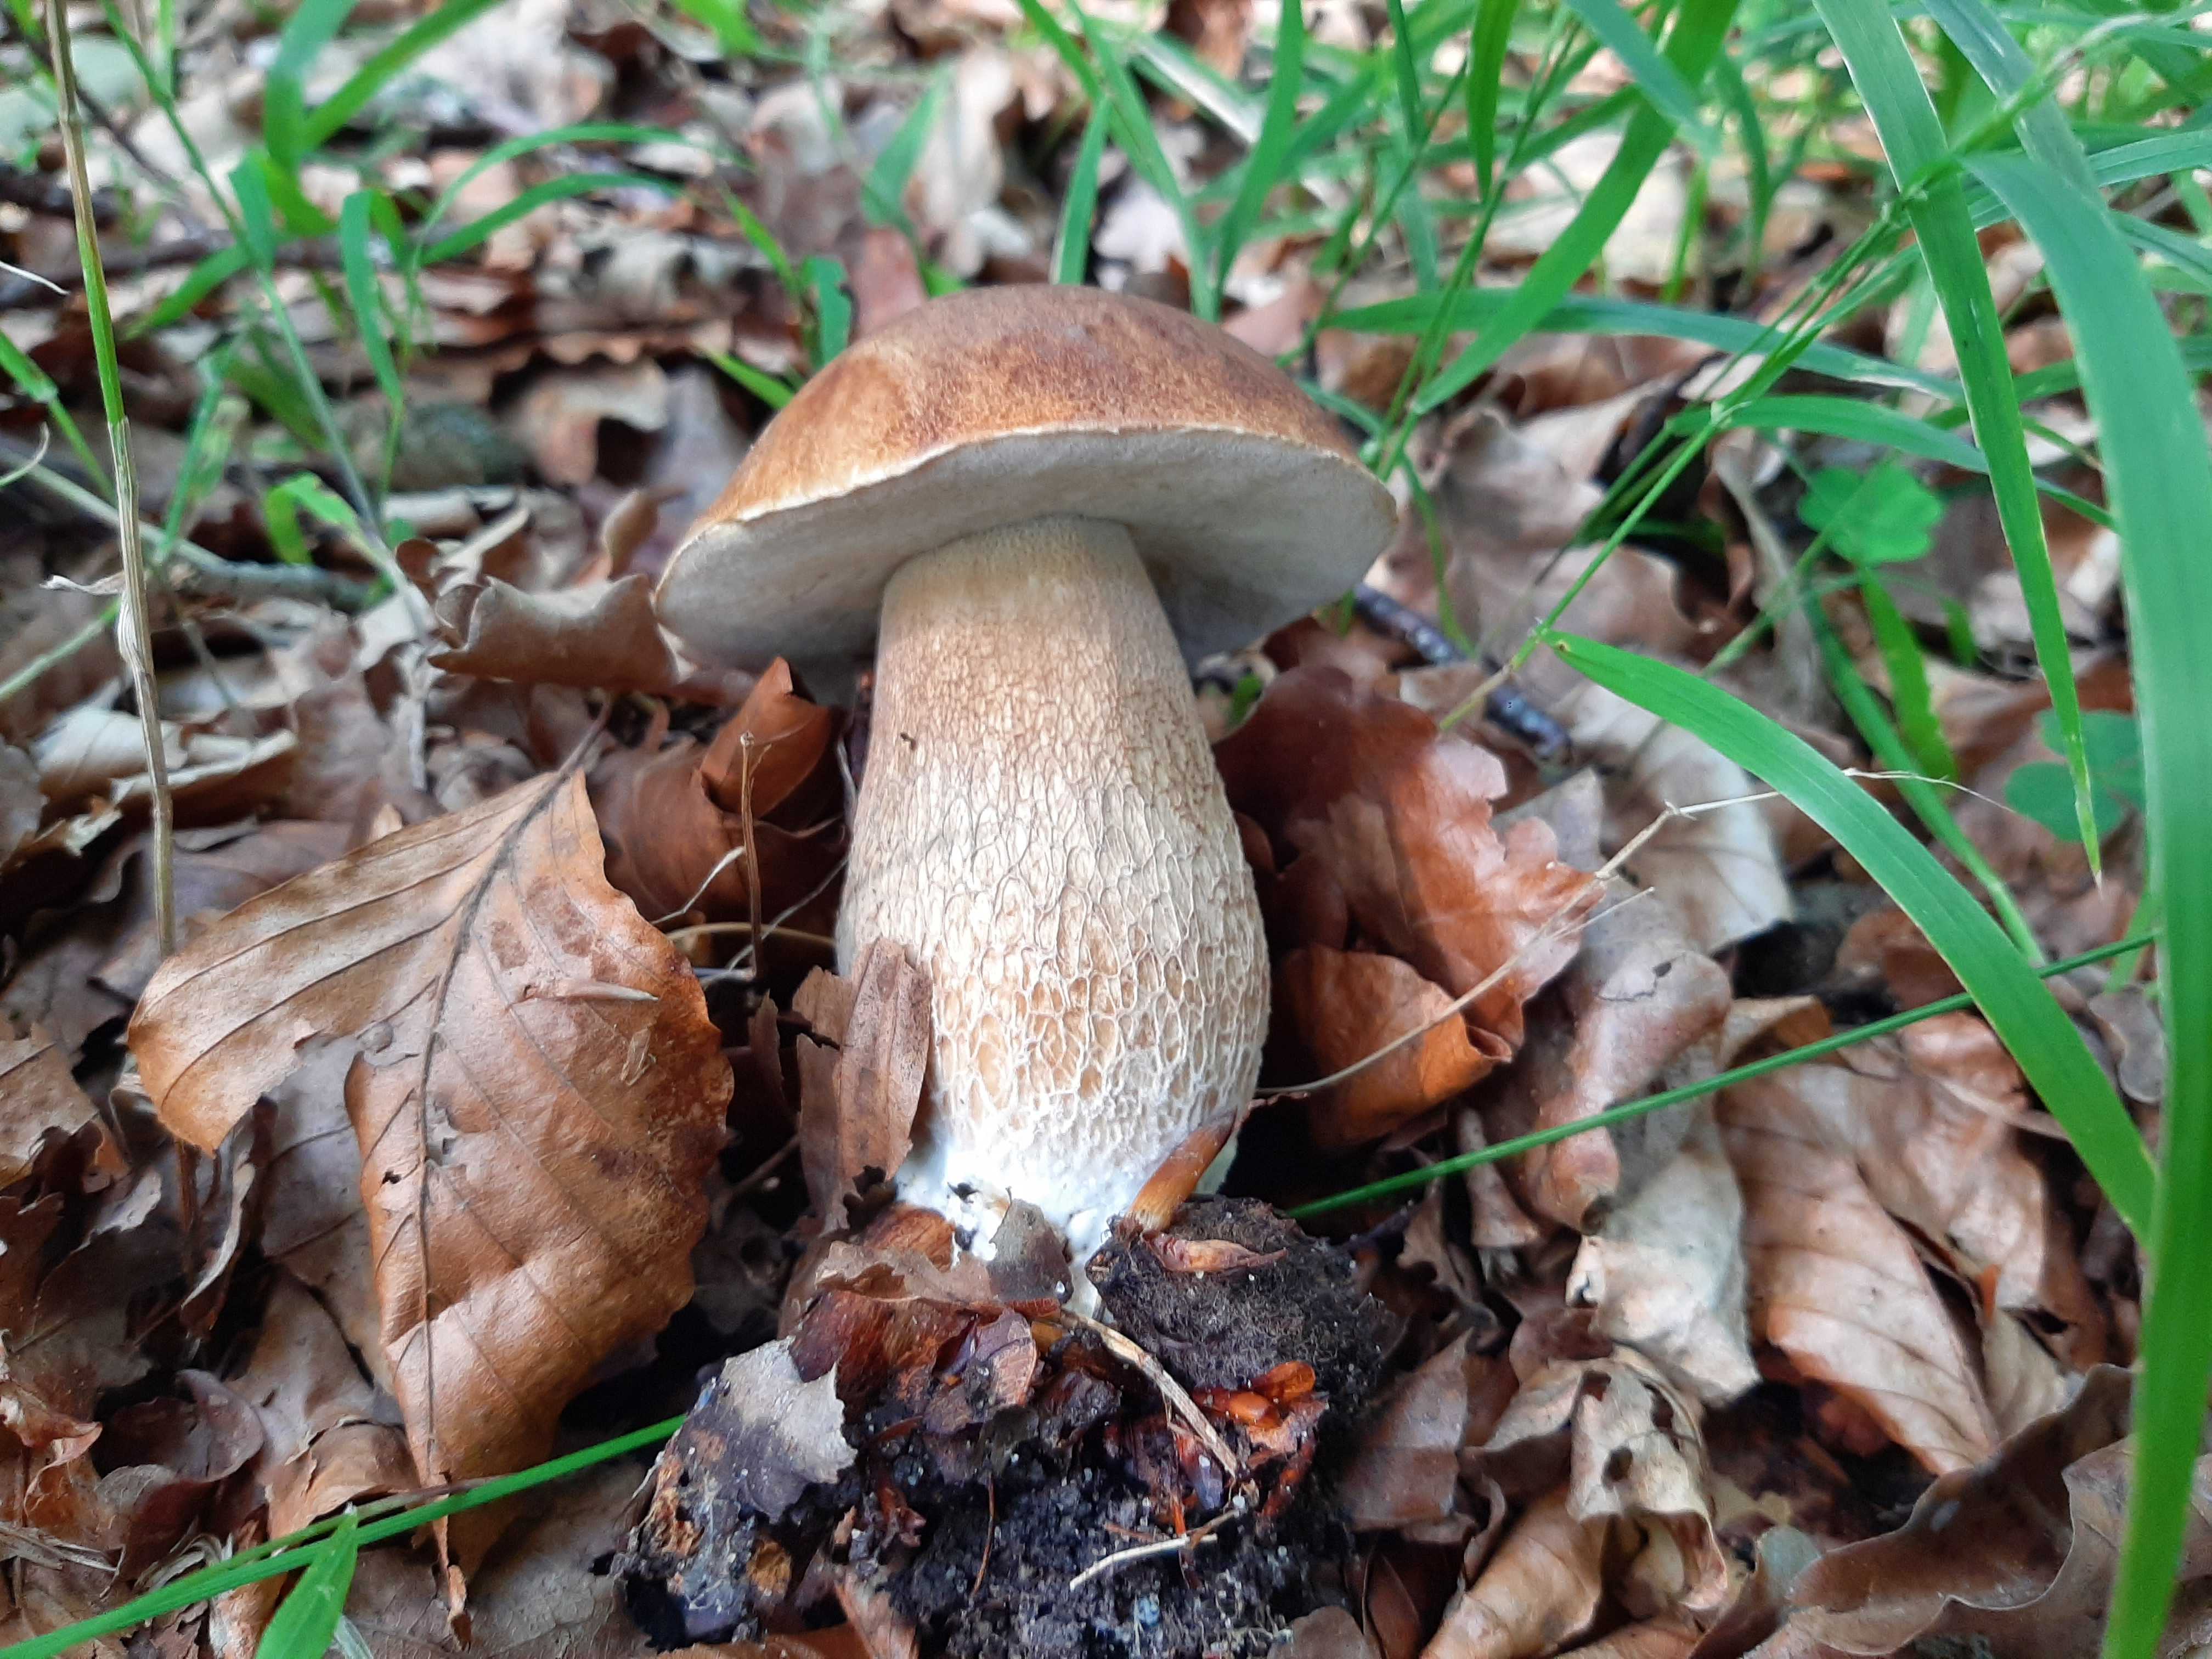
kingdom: Fungi
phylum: Basidiomycota
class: Agaricomycetes
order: Boletales
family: Boletaceae
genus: Boletus
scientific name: Boletus reticulatus
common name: sommer-rørhat
